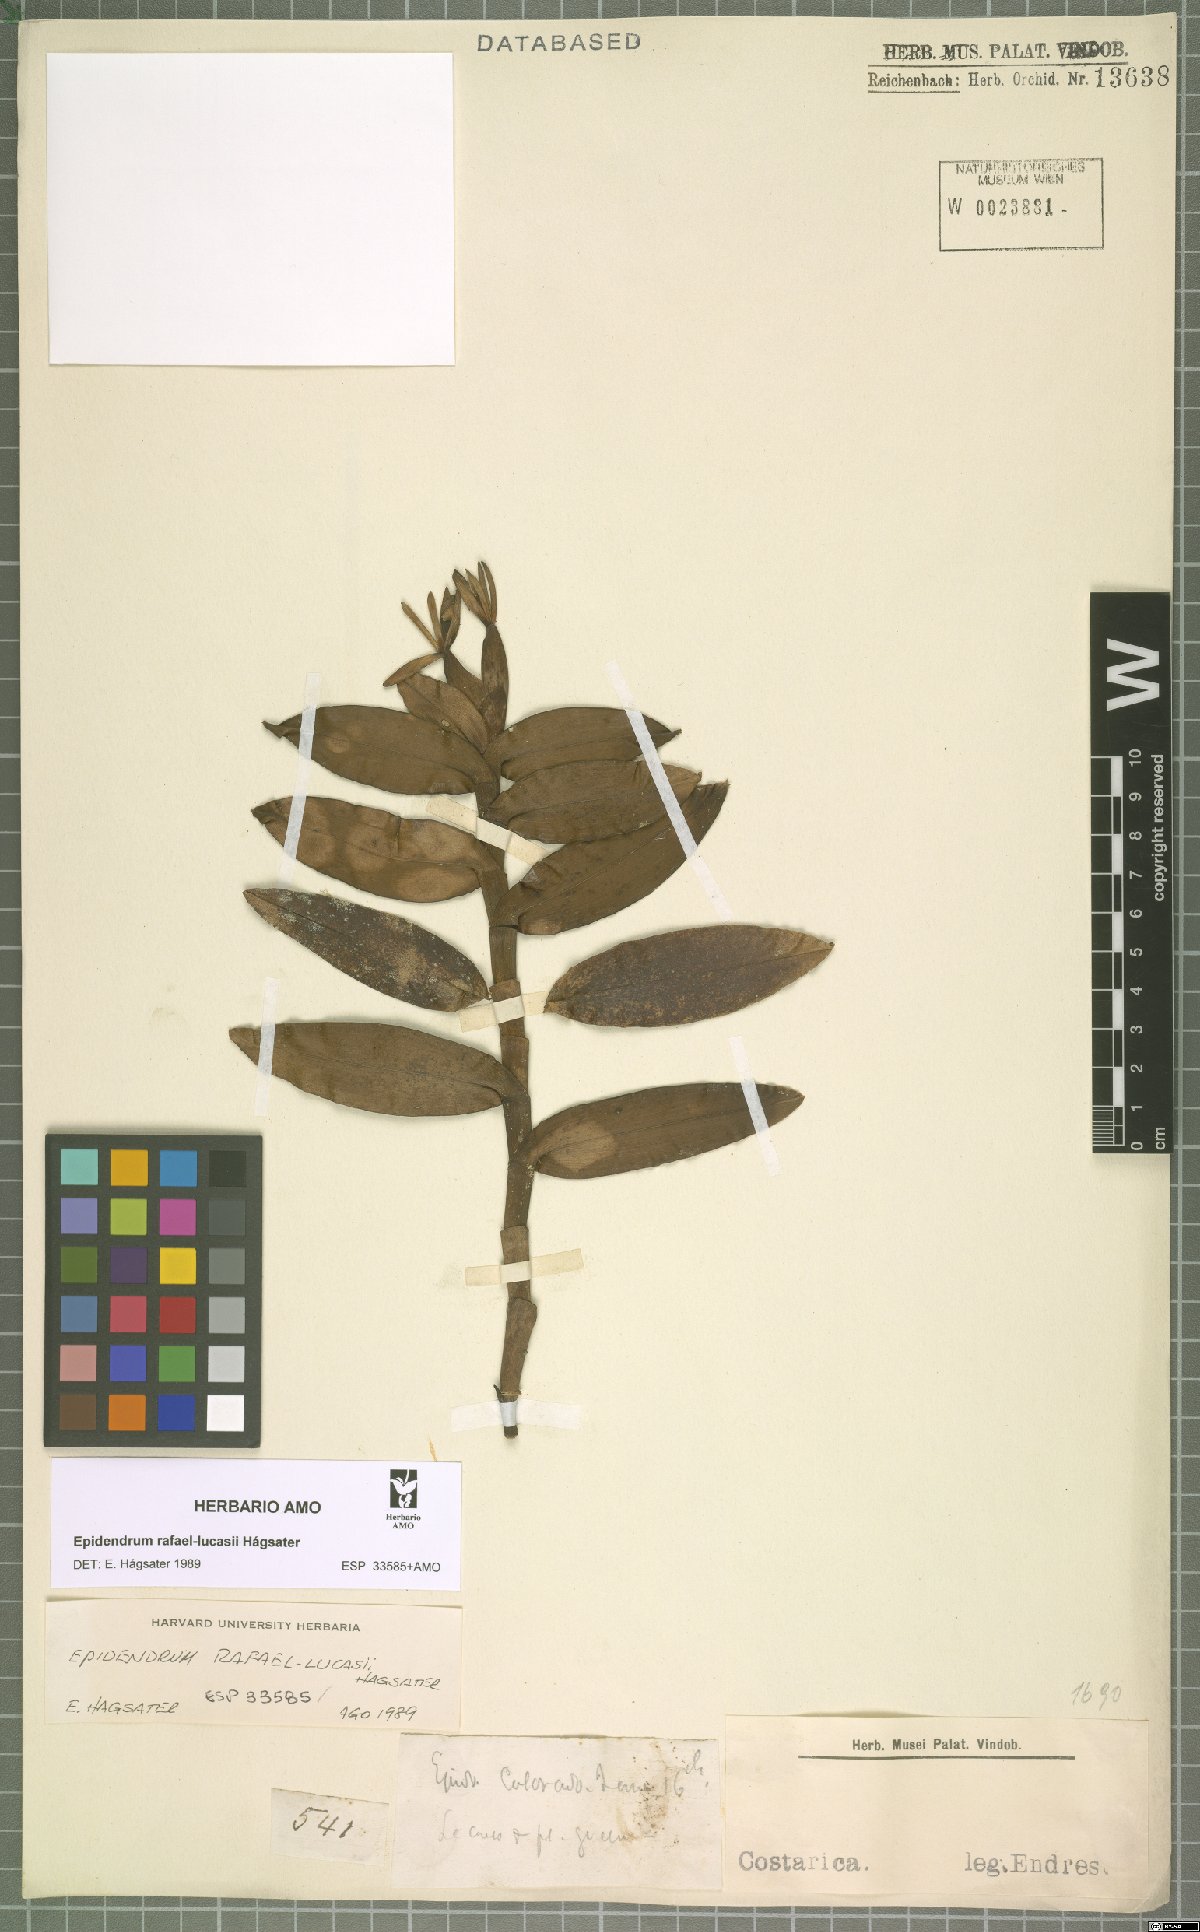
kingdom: Plantae
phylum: Tracheophyta
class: Liliopsida
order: Asparagales
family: Orchidaceae
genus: Epidendrum
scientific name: Epidendrum rafael-lucasii
